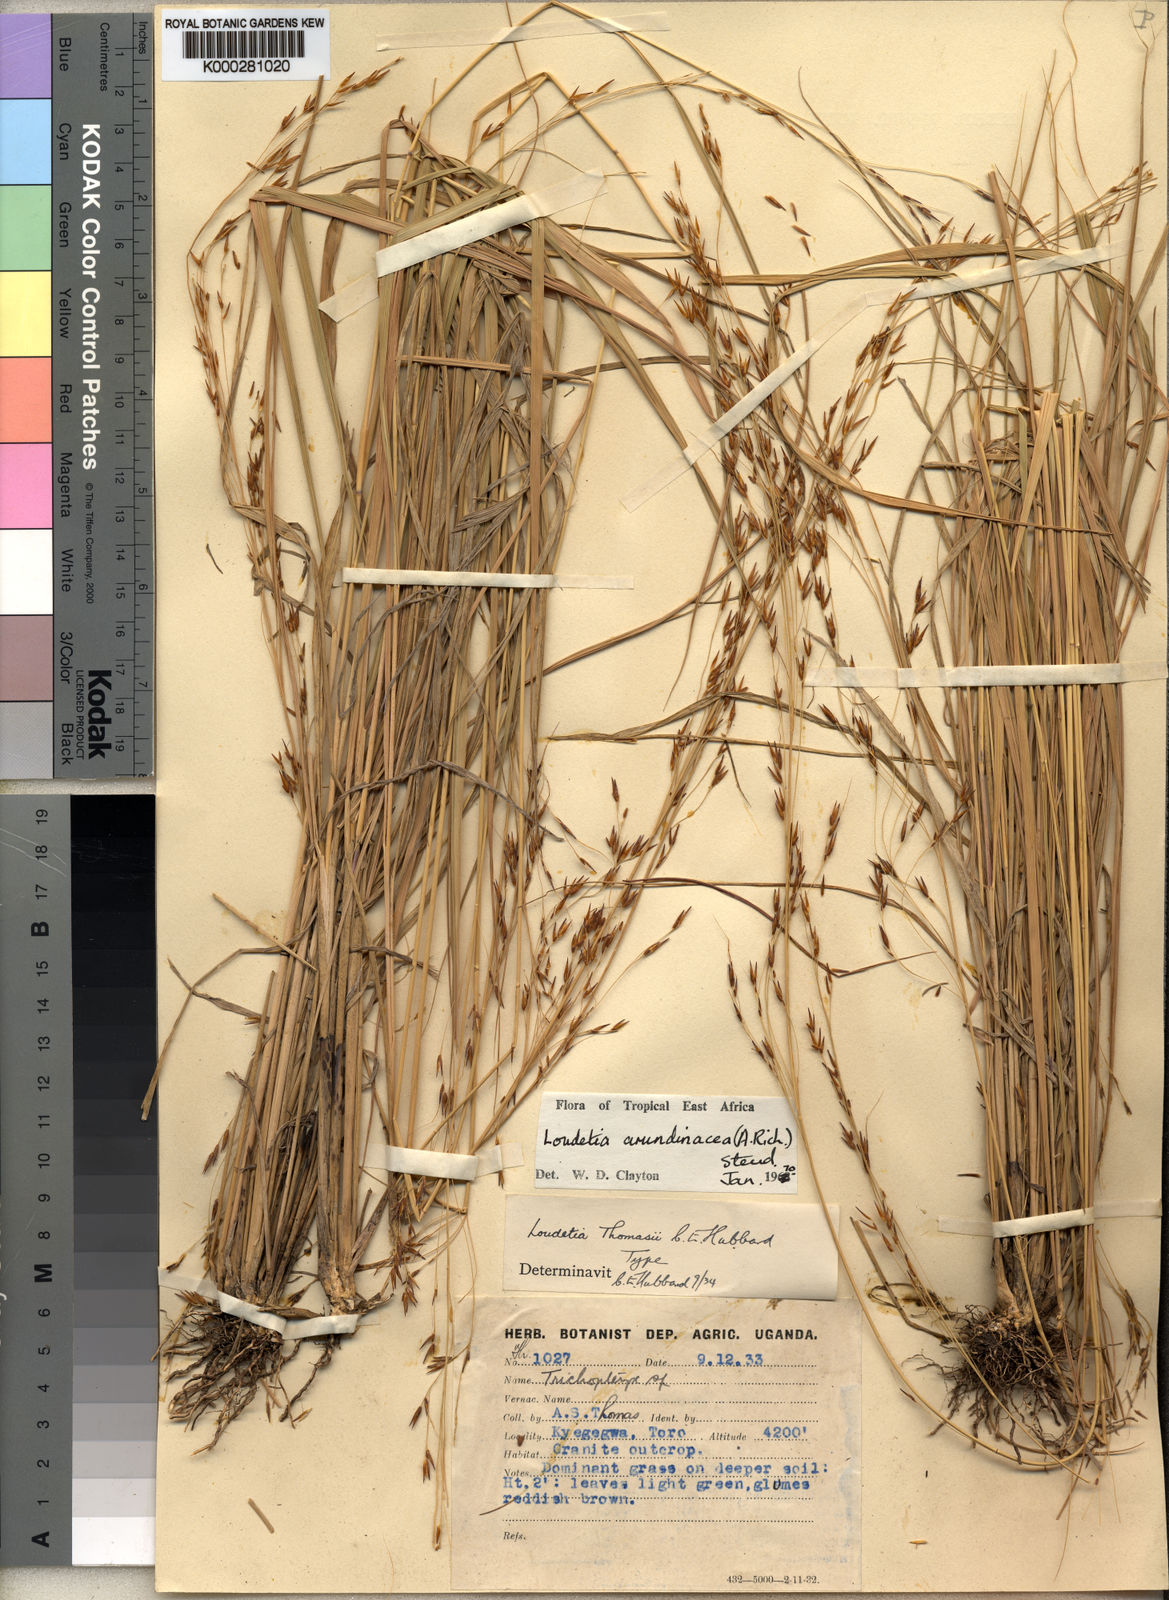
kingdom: Plantae
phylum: Tracheophyta
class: Liliopsida
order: Poales
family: Poaceae
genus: Loudetia
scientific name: Loudetia arundinacea
